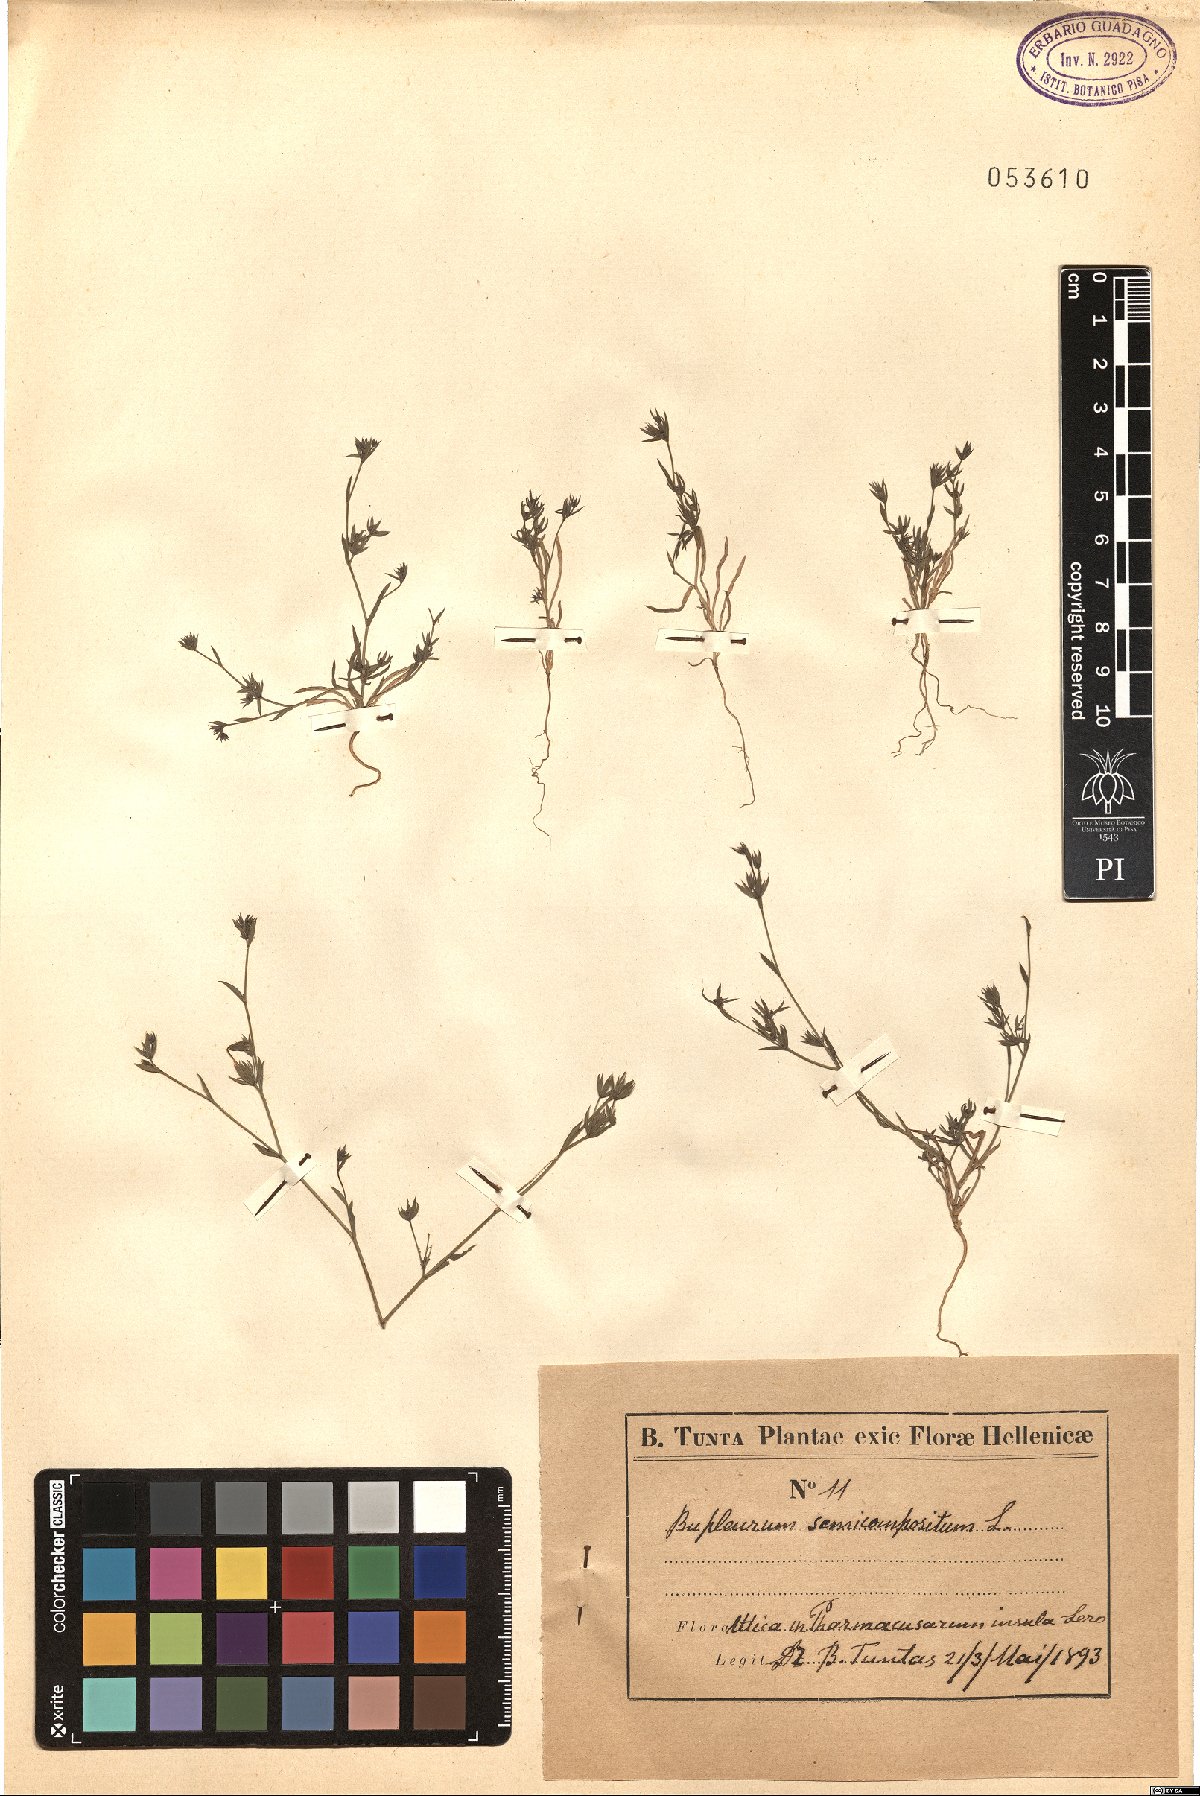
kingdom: Plantae
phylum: Tracheophyta
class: Magnoliopsida
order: Apiales
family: Apiaceae
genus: Bupleurum
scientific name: Bupleurum semicompositum
